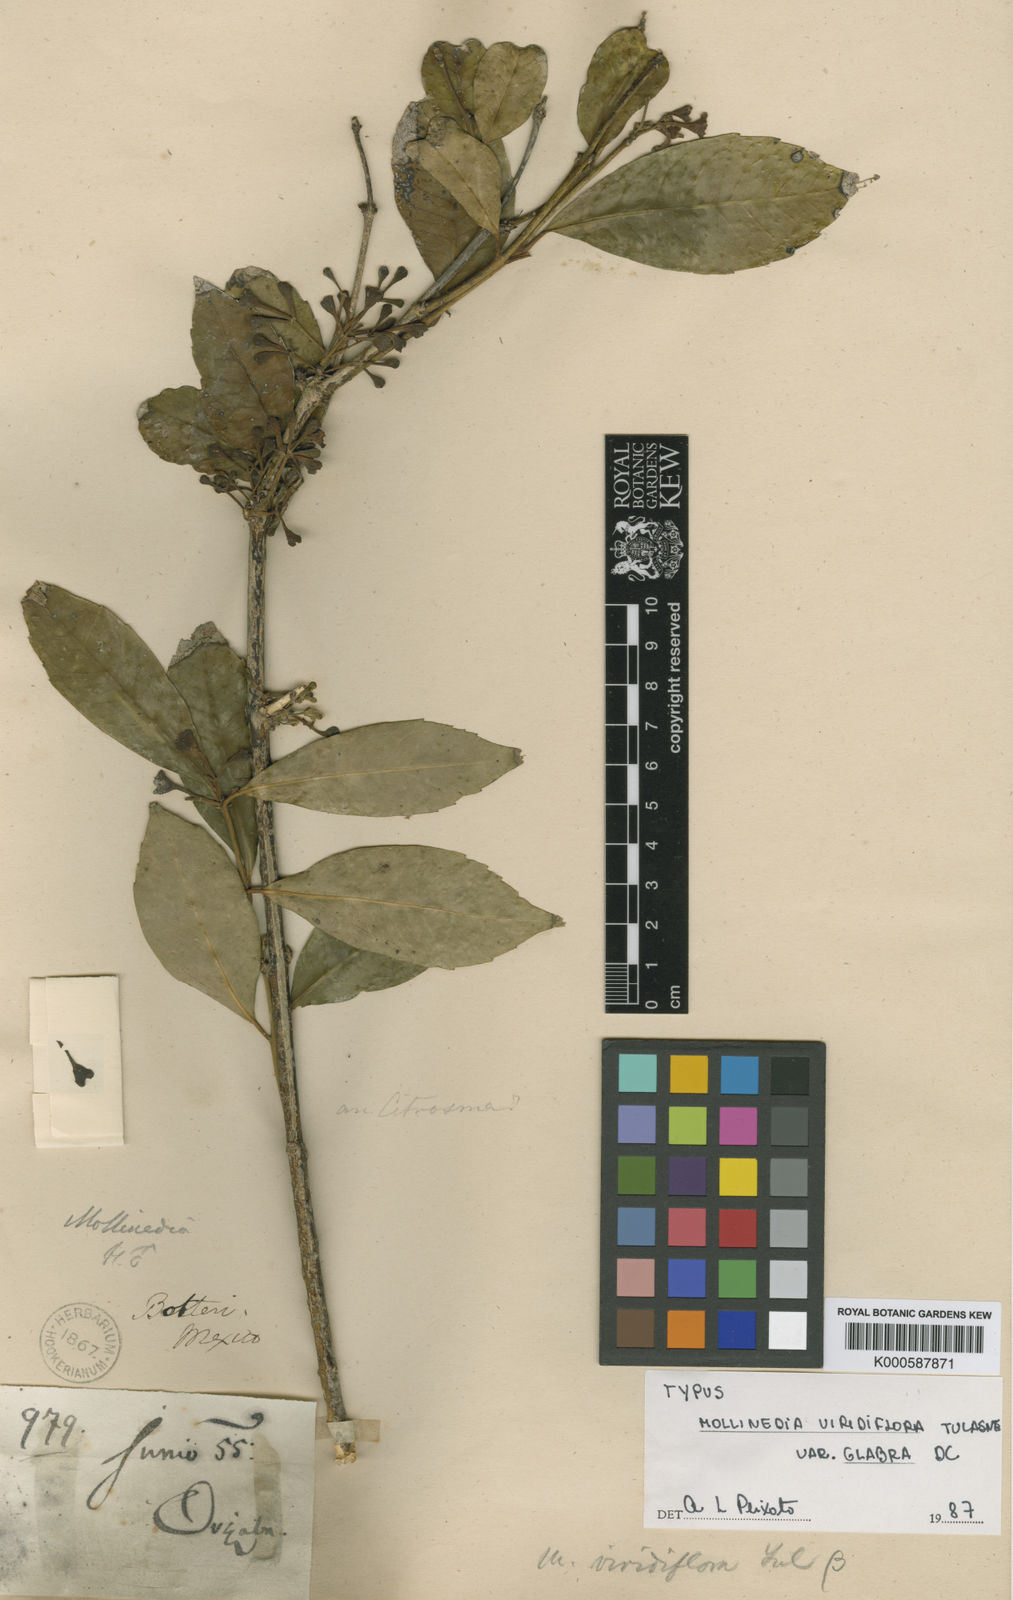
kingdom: Plantae
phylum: Tracheophyta
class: Magnoliopsida
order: Laurales
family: Monimiaceae
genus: Mollinedia
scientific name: Mollinedia viridiflora
